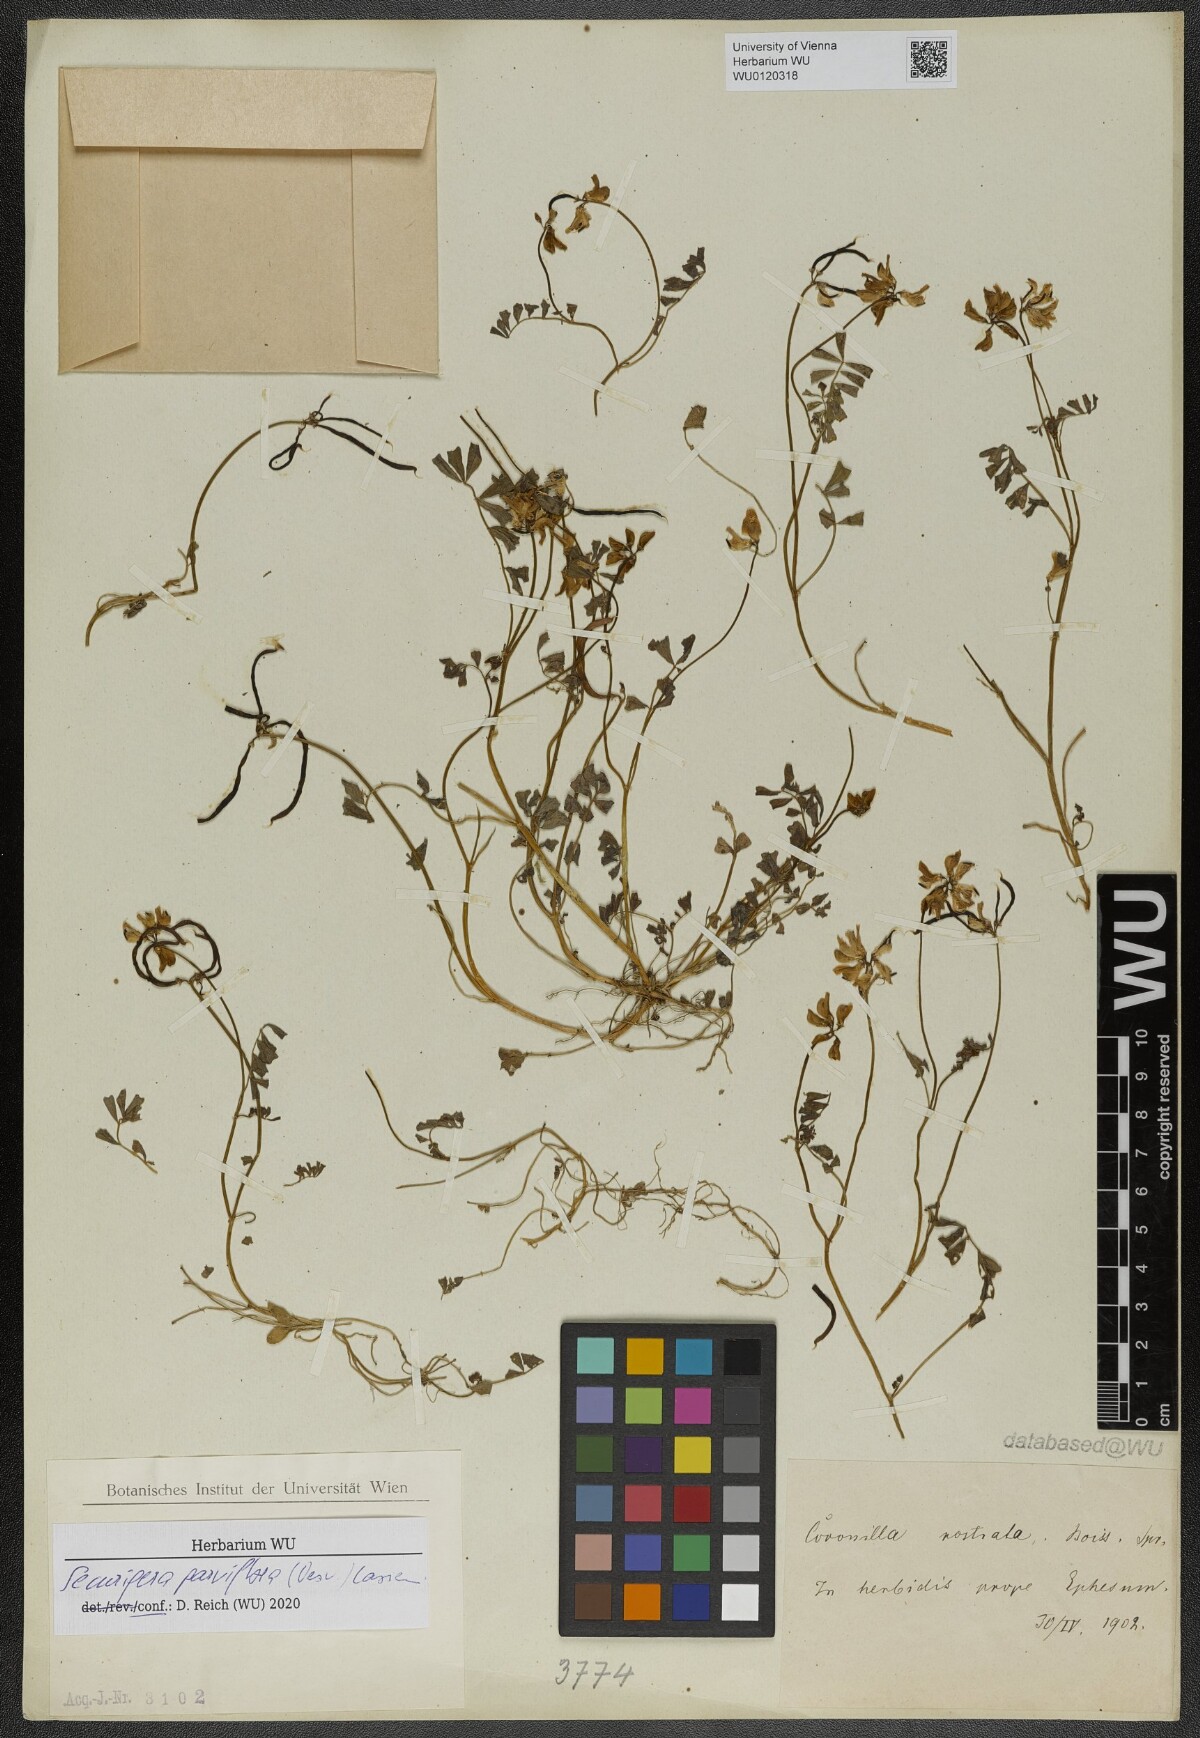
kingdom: Plantae
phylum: Tracheophyta
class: Magnoliopsida
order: Fabales
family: Fabaceae
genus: Coronilla
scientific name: Coronilla rostrata
